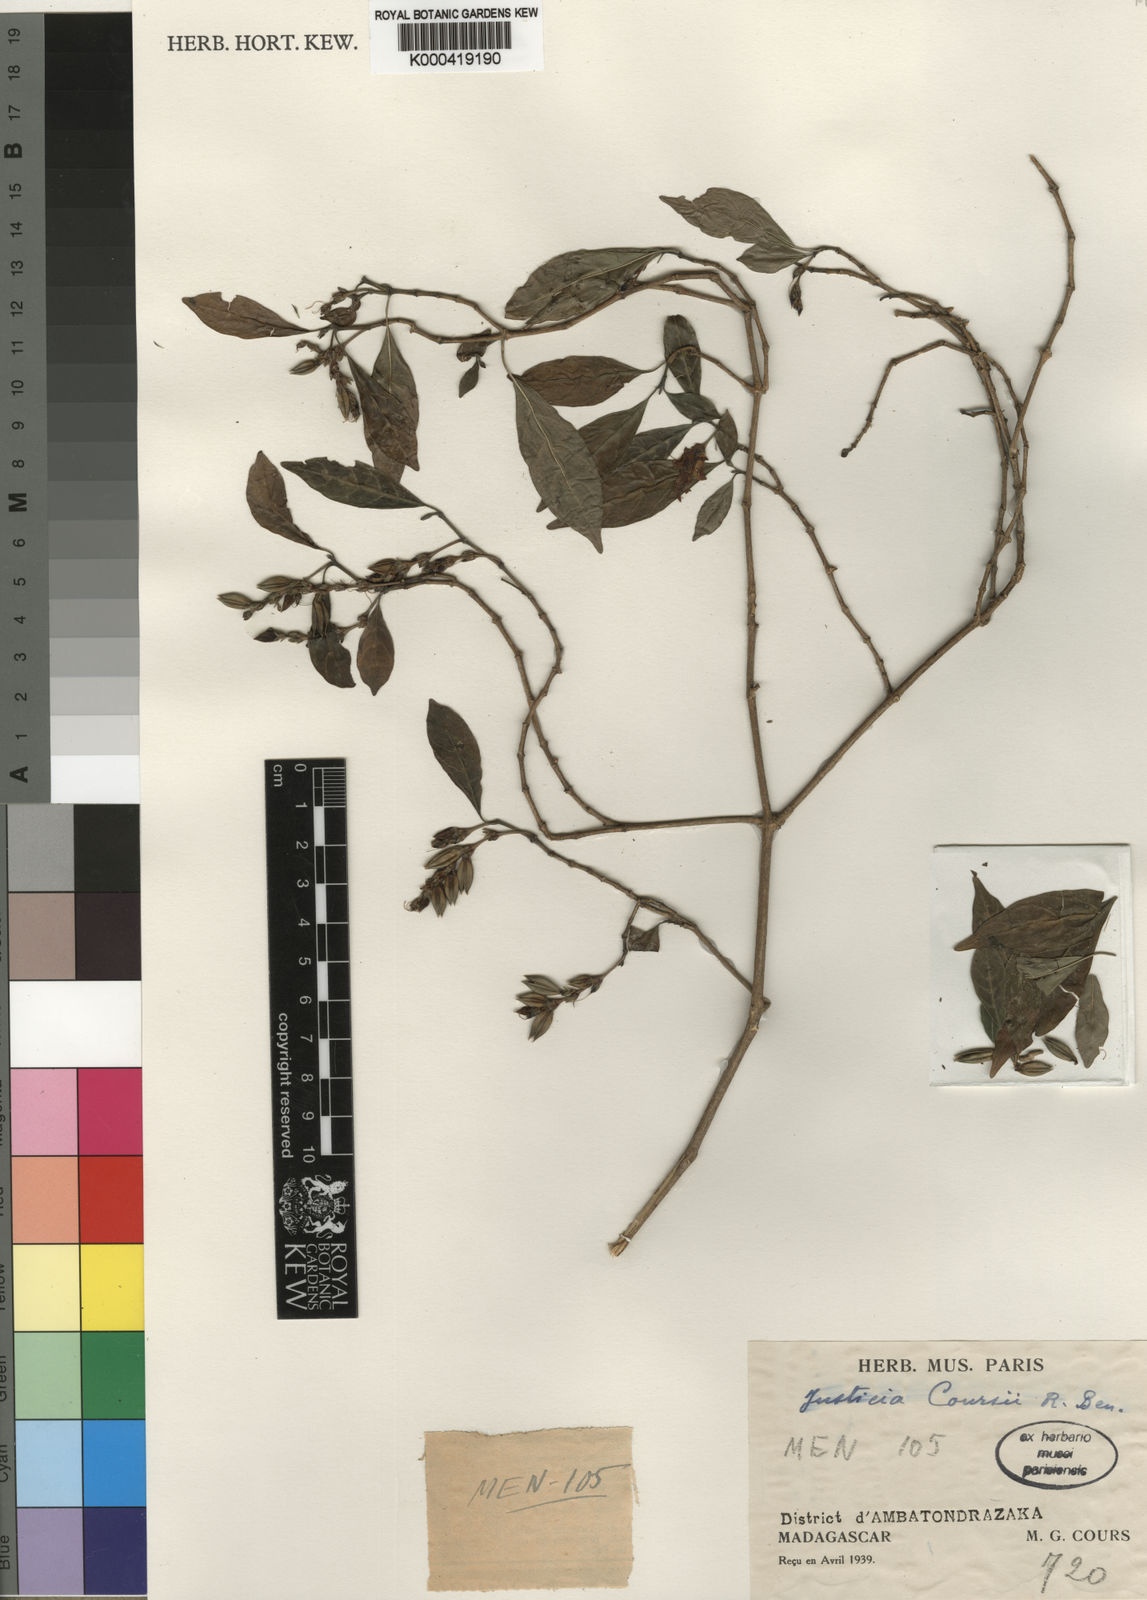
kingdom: Plantae
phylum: Tracheophyta
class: Magnoliopsida
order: Lamiales
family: Acanthaceae
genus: Justicia
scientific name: Justicia coursii
